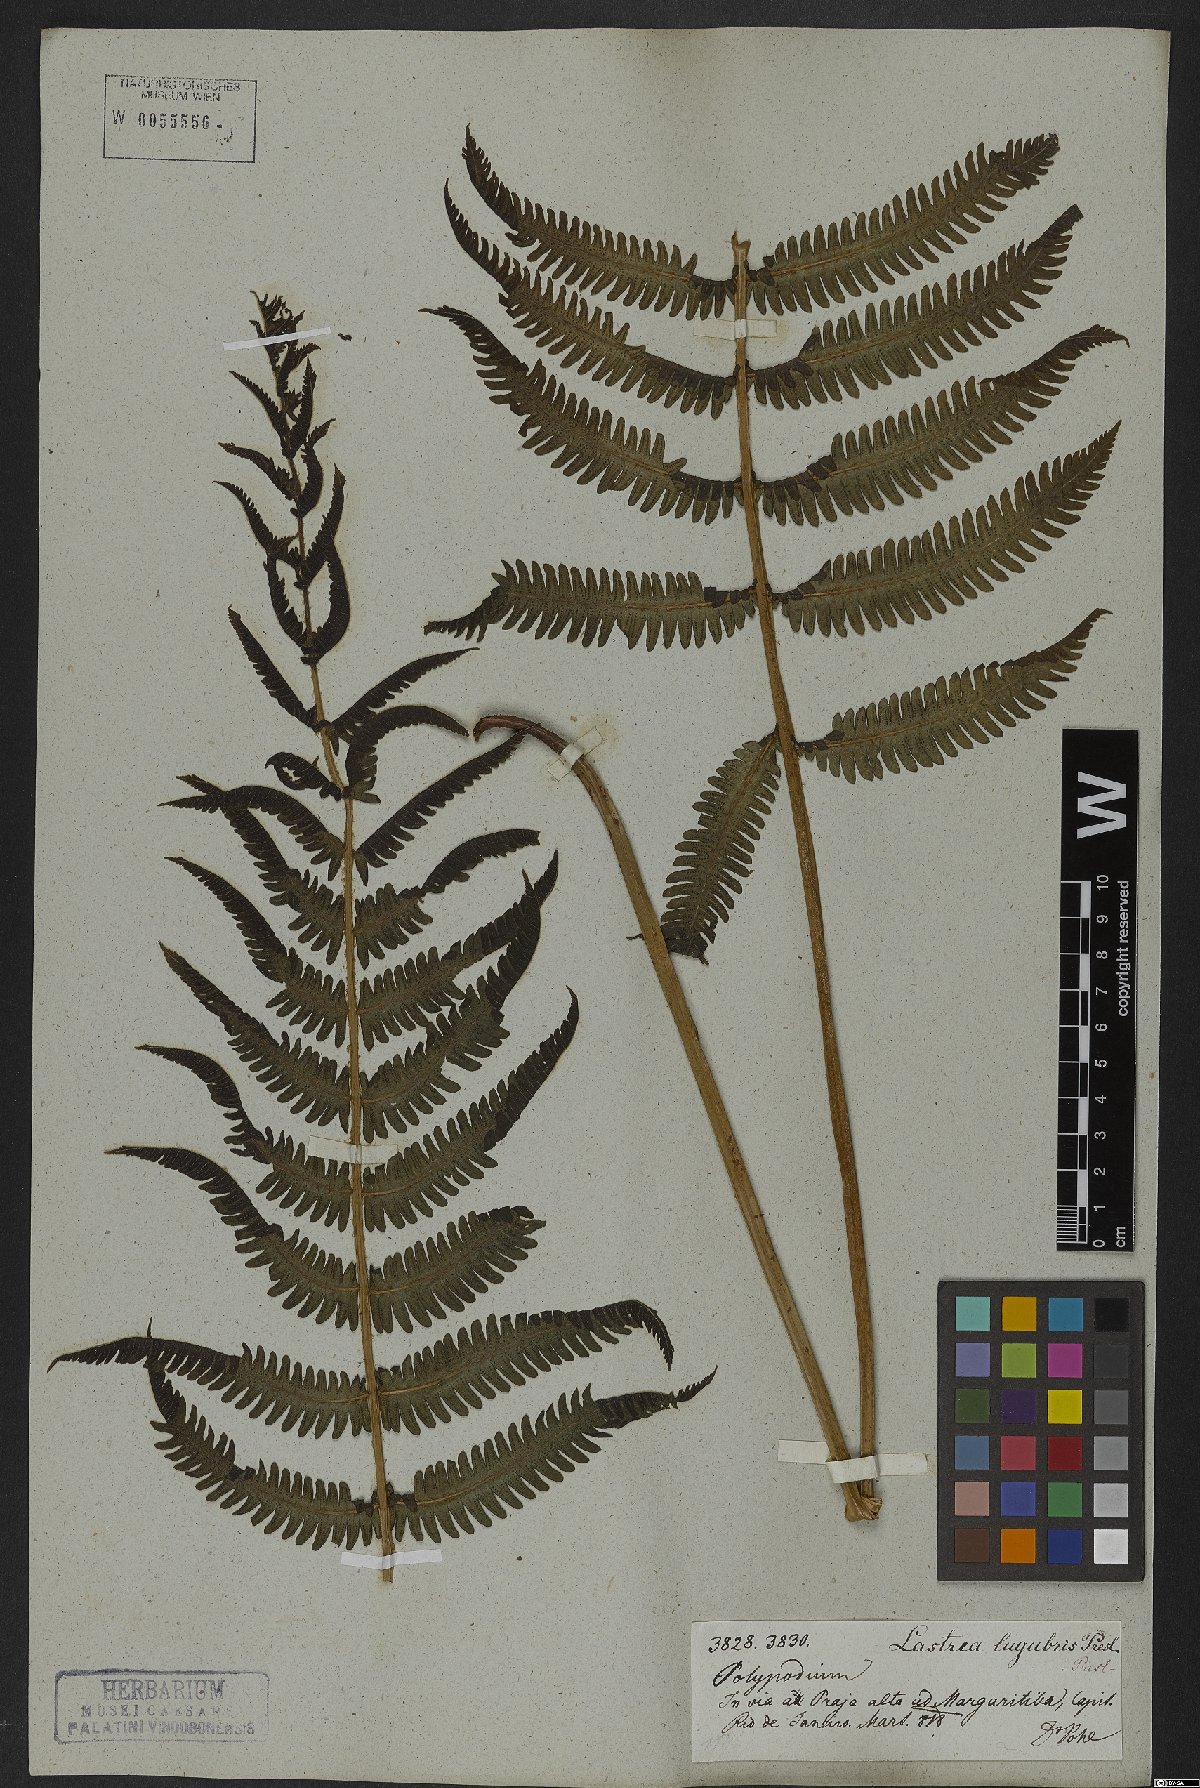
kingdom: Plantae
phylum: Tracheophyta
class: Polypodiopsida
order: Polypodiales
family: Thelypteridaceae
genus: Goniopteris
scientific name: Goniopteris lugubris
